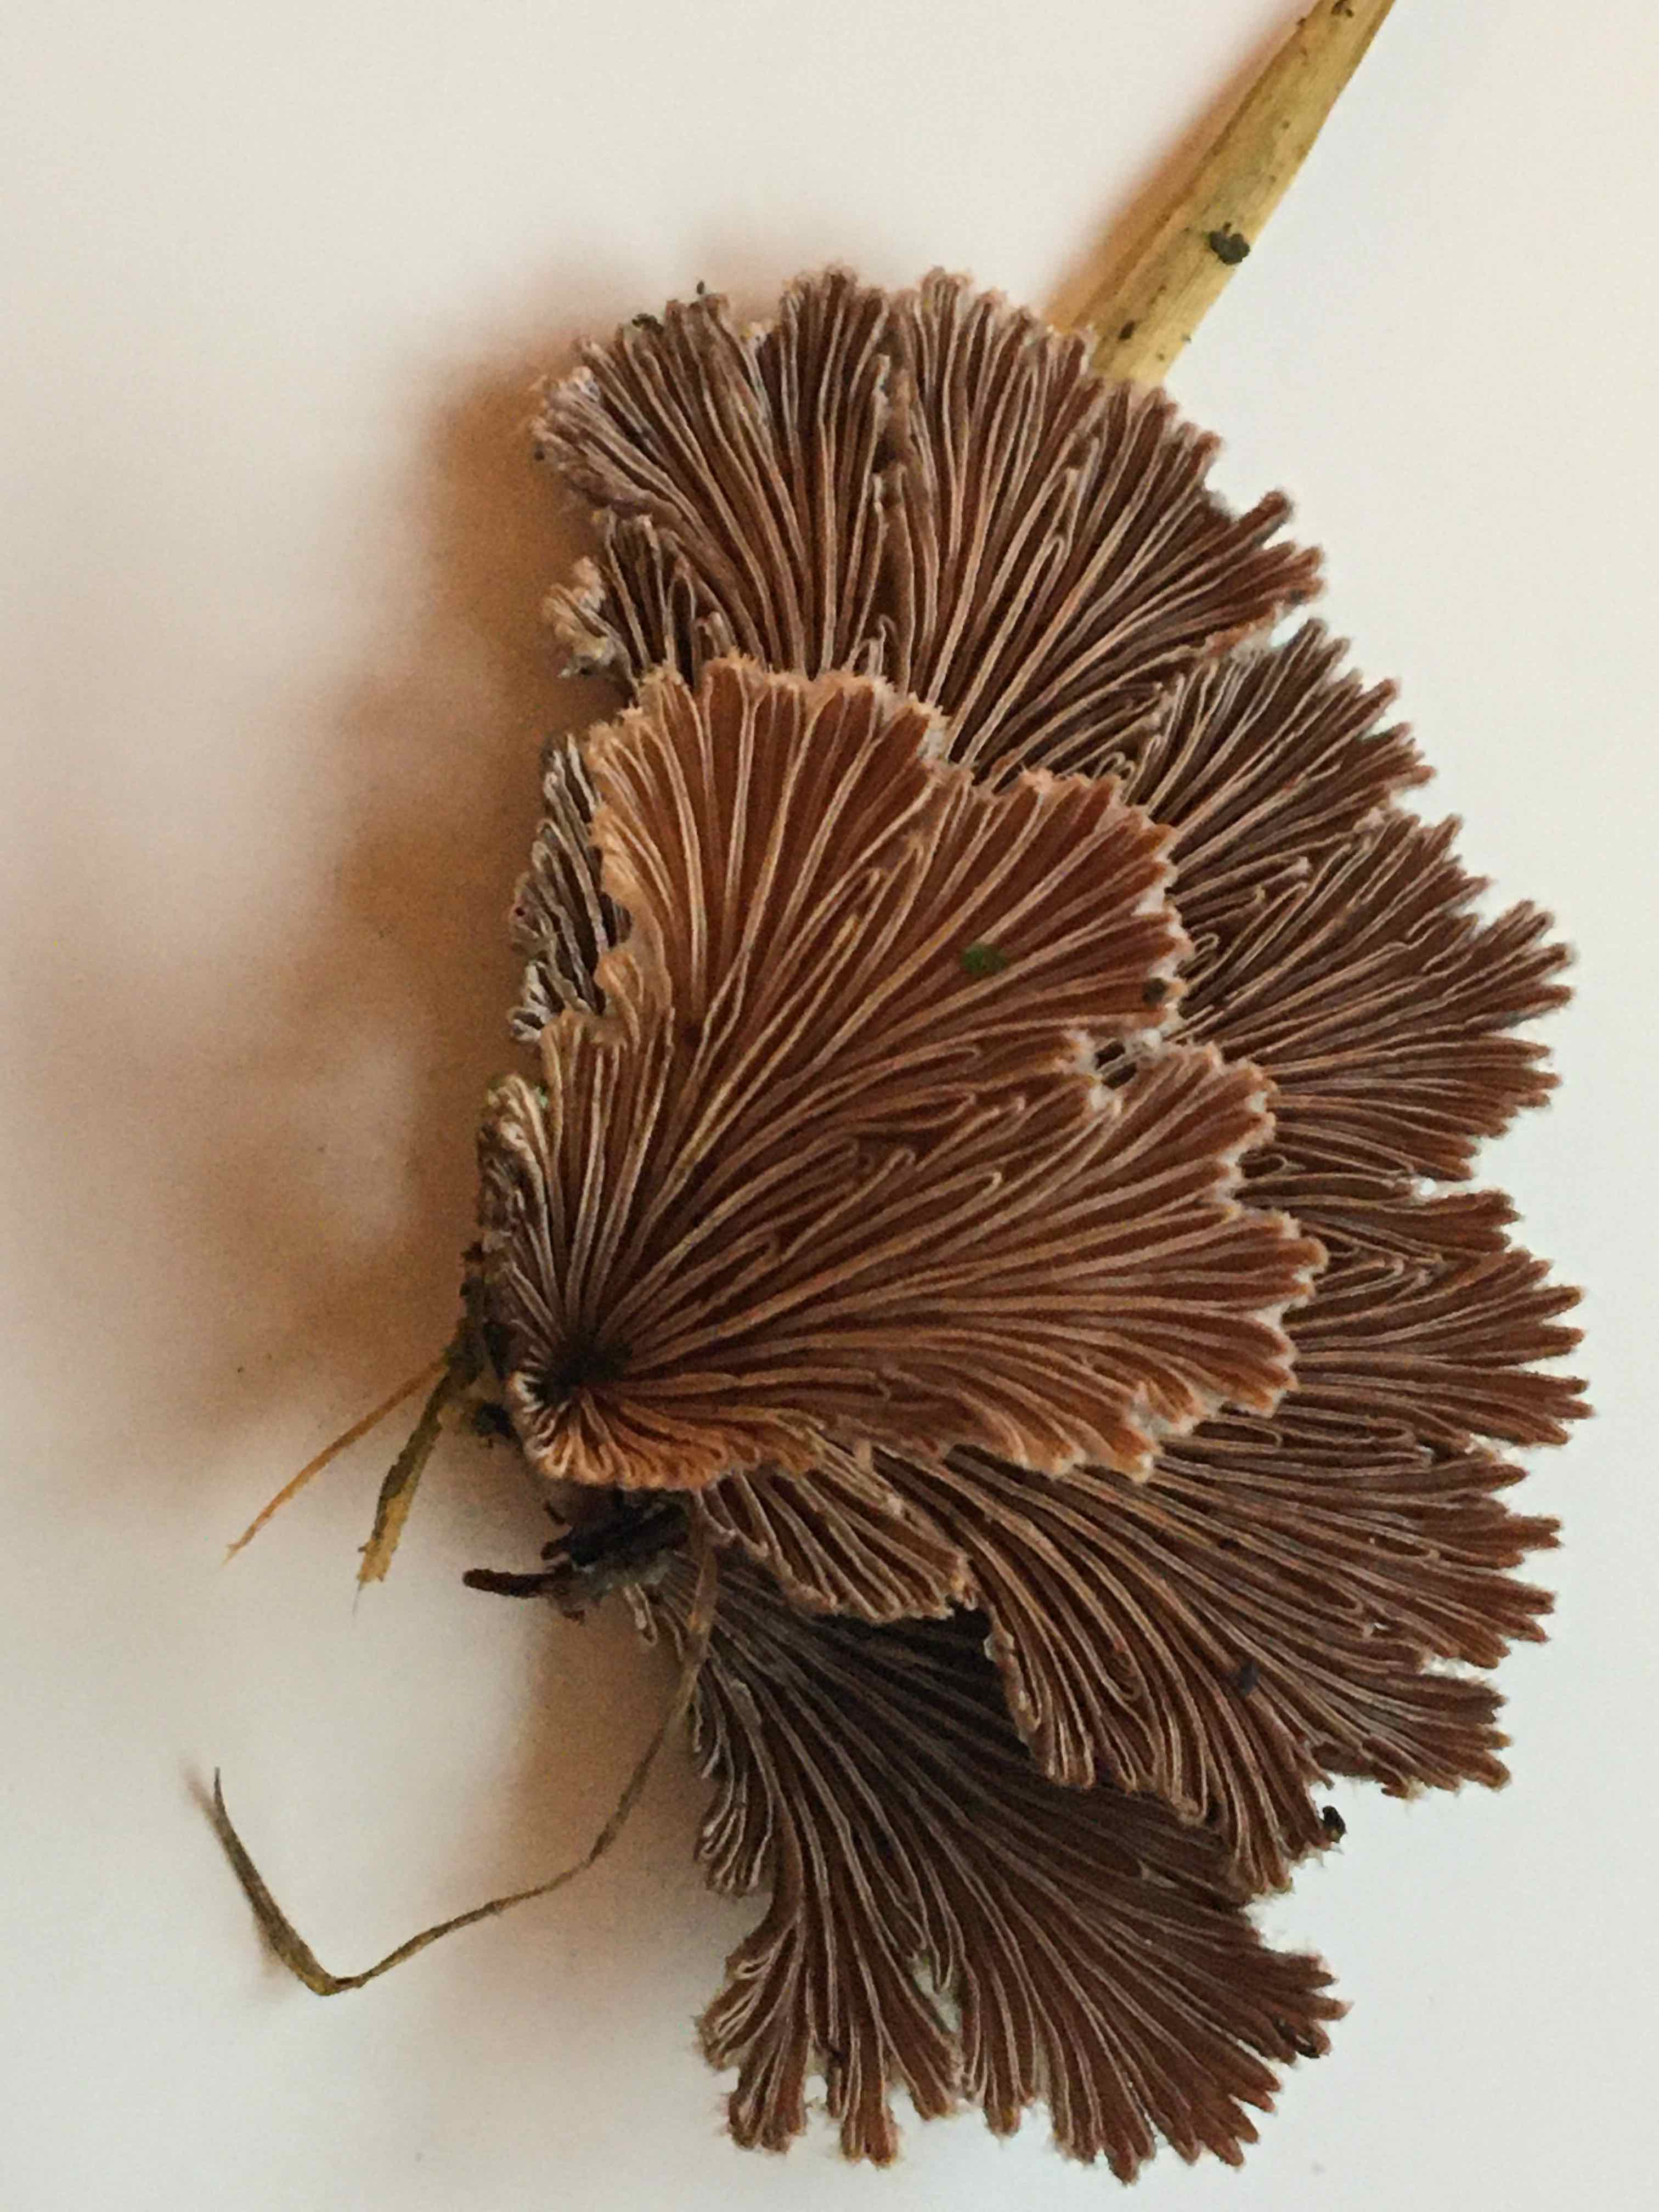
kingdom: Fungi
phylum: Basidiomycota
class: Agaricomycetes
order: Agaricales
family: Schizophyllaceae
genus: Schizophyllum
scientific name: Schizophyllum commune
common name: kløvblad
